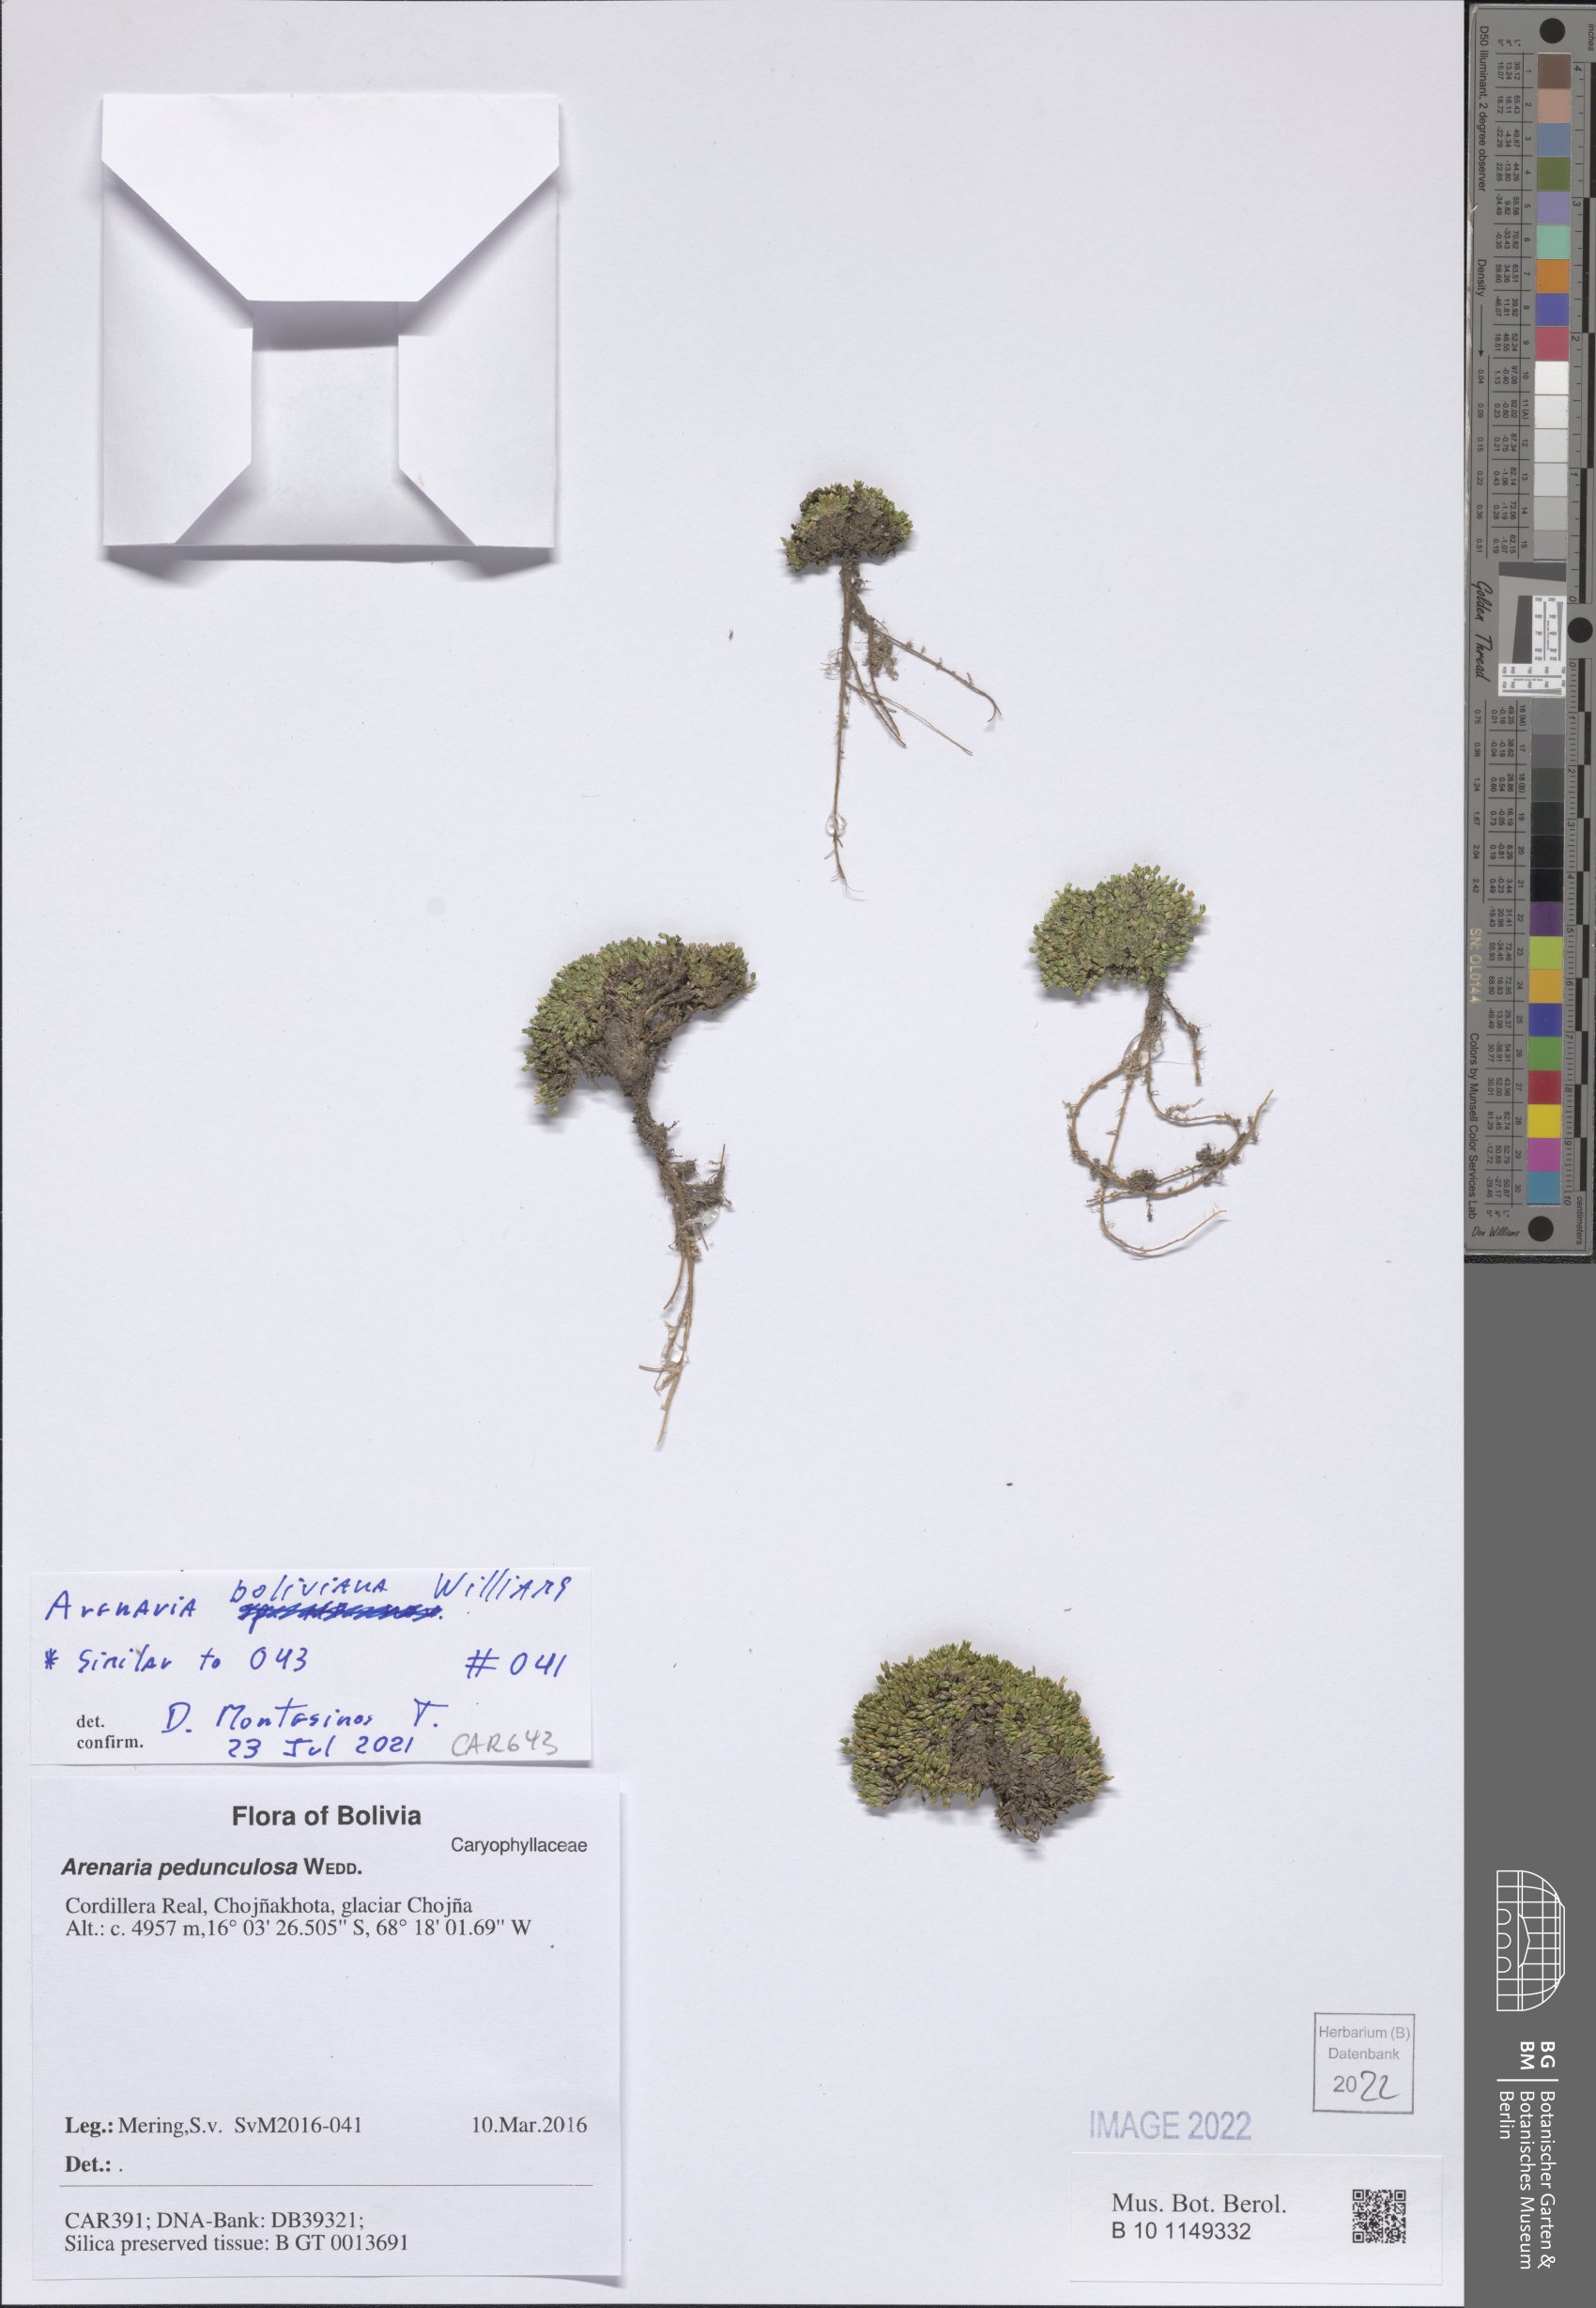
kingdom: Plantae
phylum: Tracheophyta
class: Magnoliopsida
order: Caryophyllales
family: Caryophyllaceae
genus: Arenaria
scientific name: Arenaria boliviana
